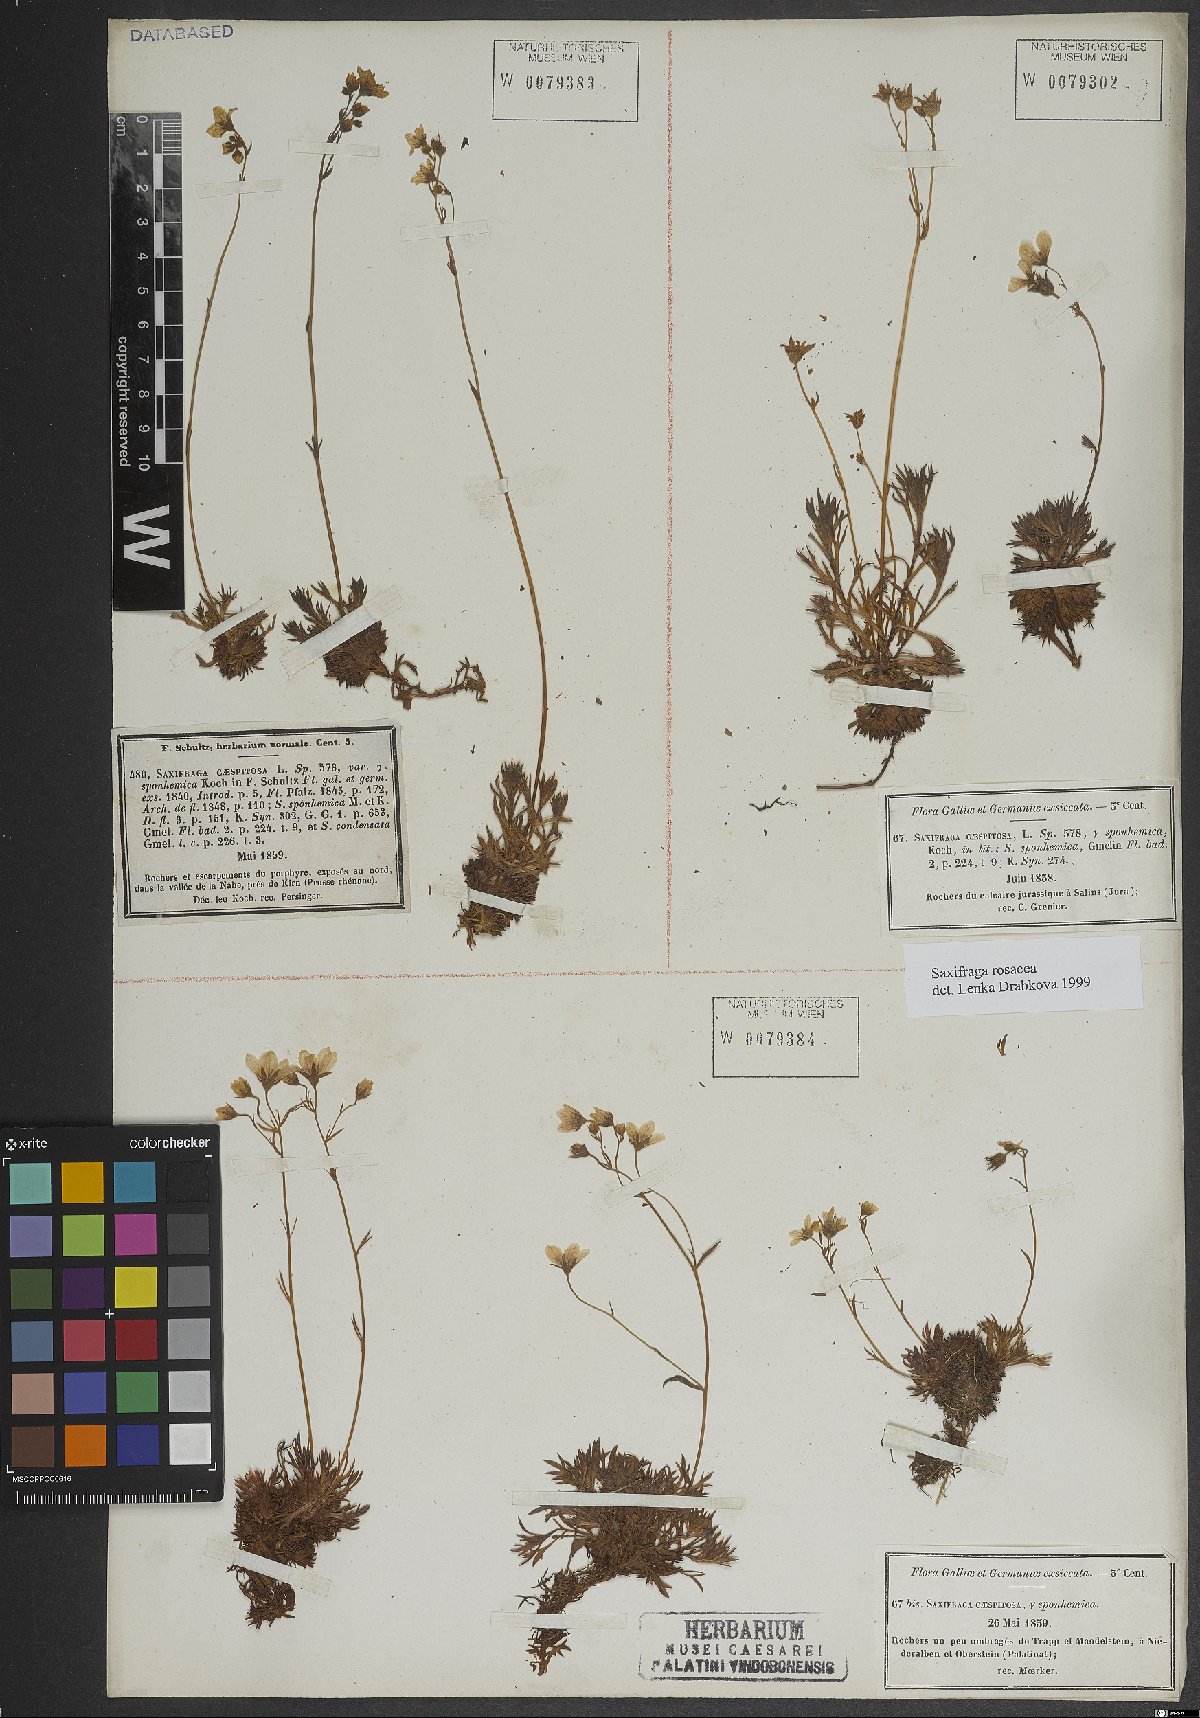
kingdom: Plantae
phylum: Tracheophyta
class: Magnoliopsida
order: Saxifragales
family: Saxifragaceae
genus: Saxifraga
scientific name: Saxifraga rosacea
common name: Irish saxifrage
